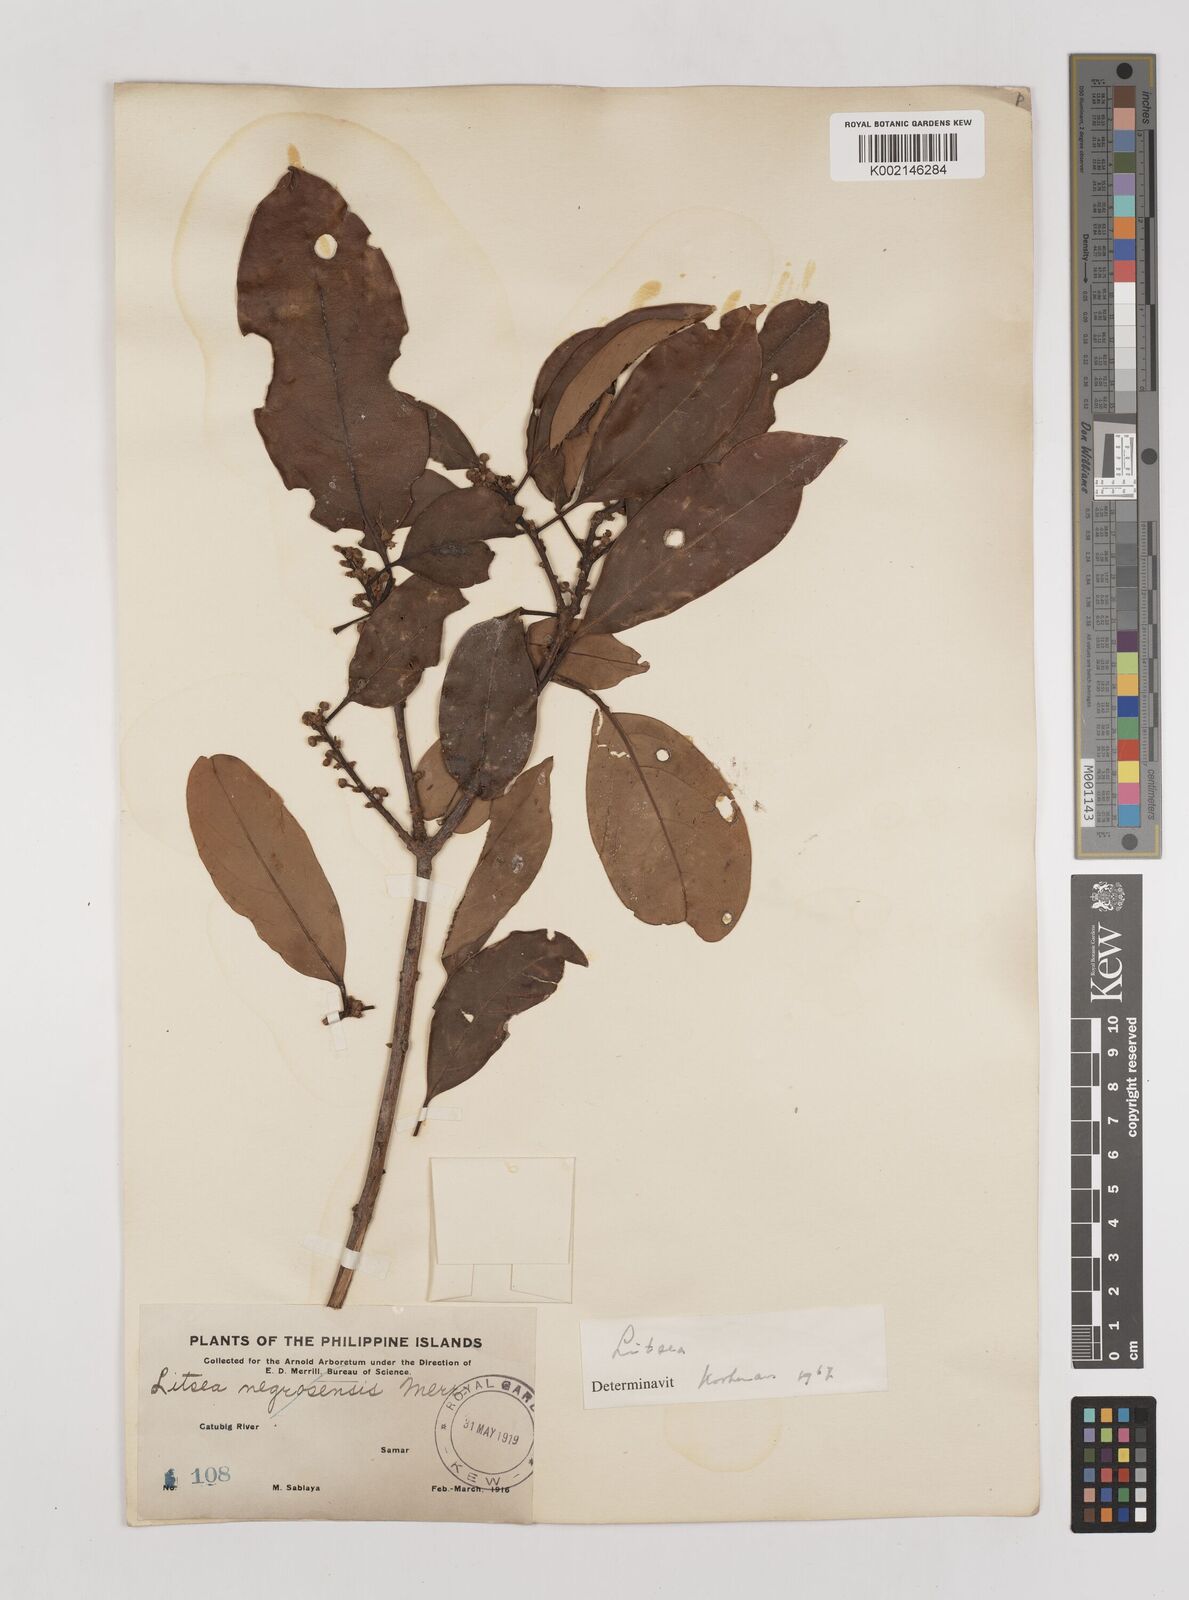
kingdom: Plantae
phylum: Tracheophyta
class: Magnoliopsida
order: Laurales
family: Lauraceae
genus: Litsea
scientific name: Litsea
